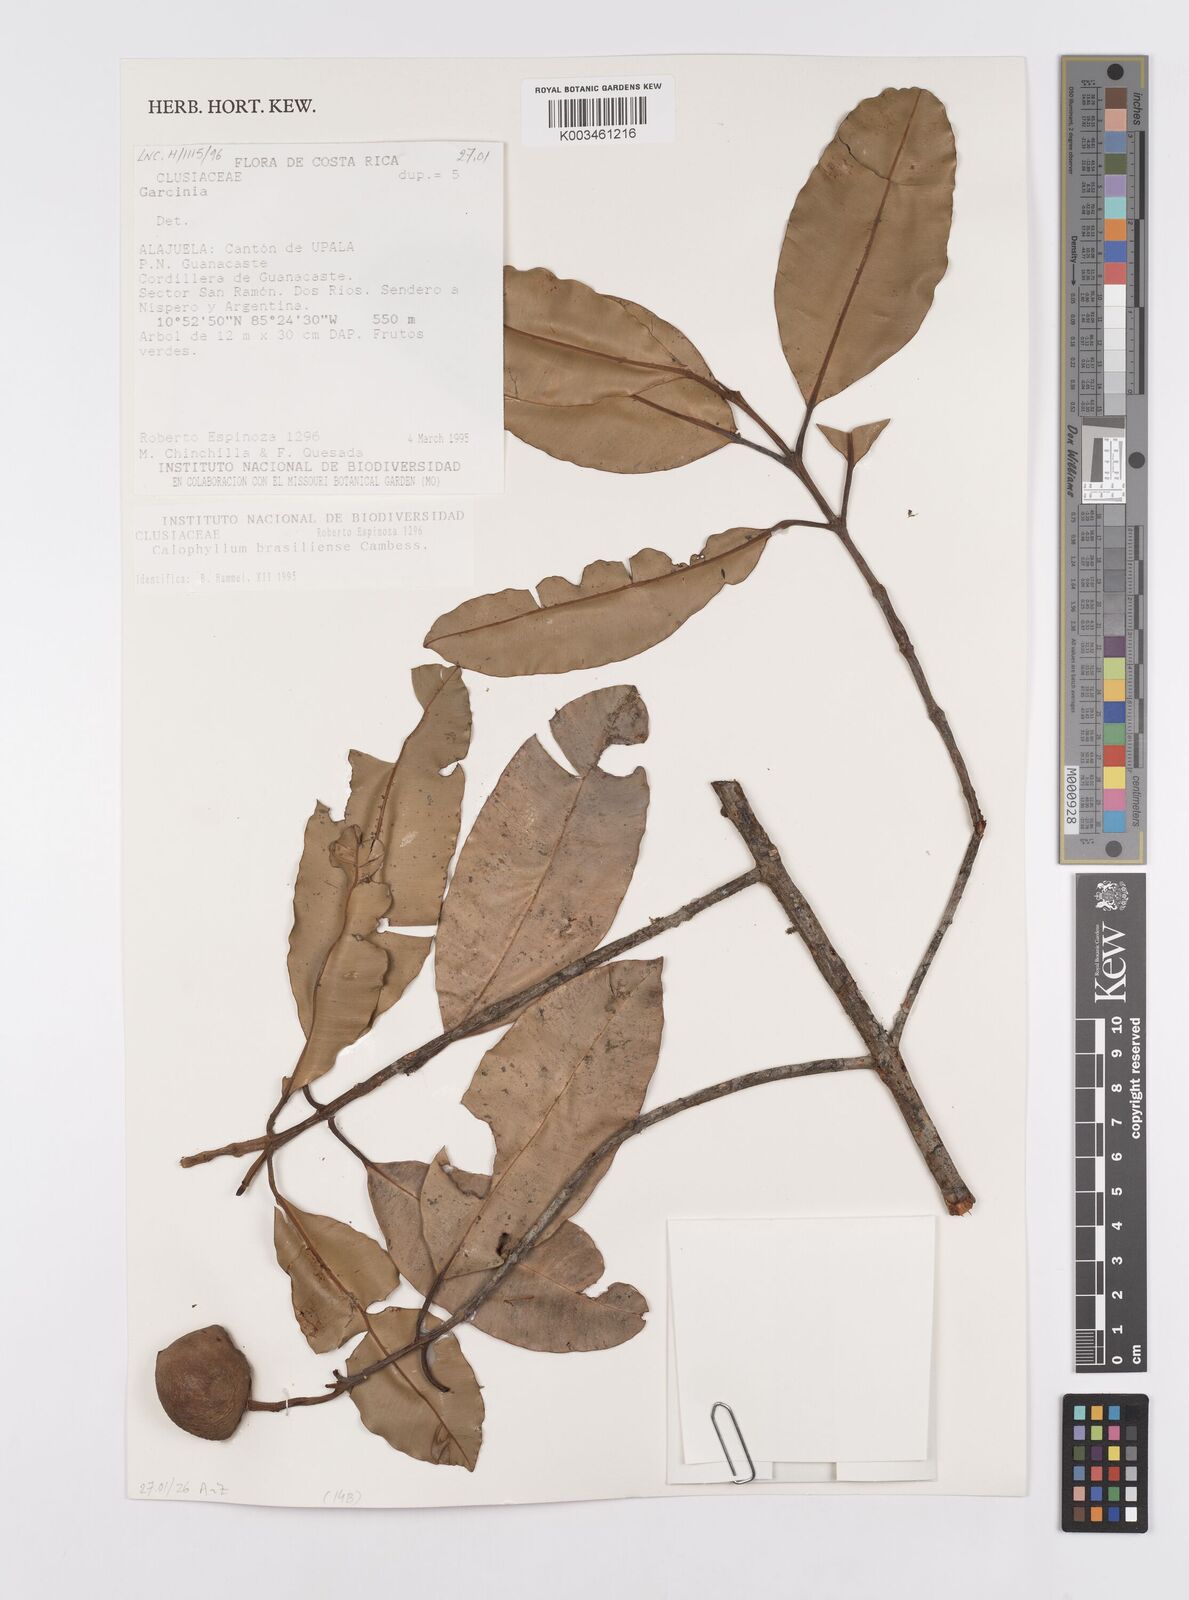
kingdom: Plantae
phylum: Tracheophyta
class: Magnoliopsida
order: Malpighiales
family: Calophyllaceae
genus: Calophyllum
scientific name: Calophyllum brasiliense
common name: Santa maria
